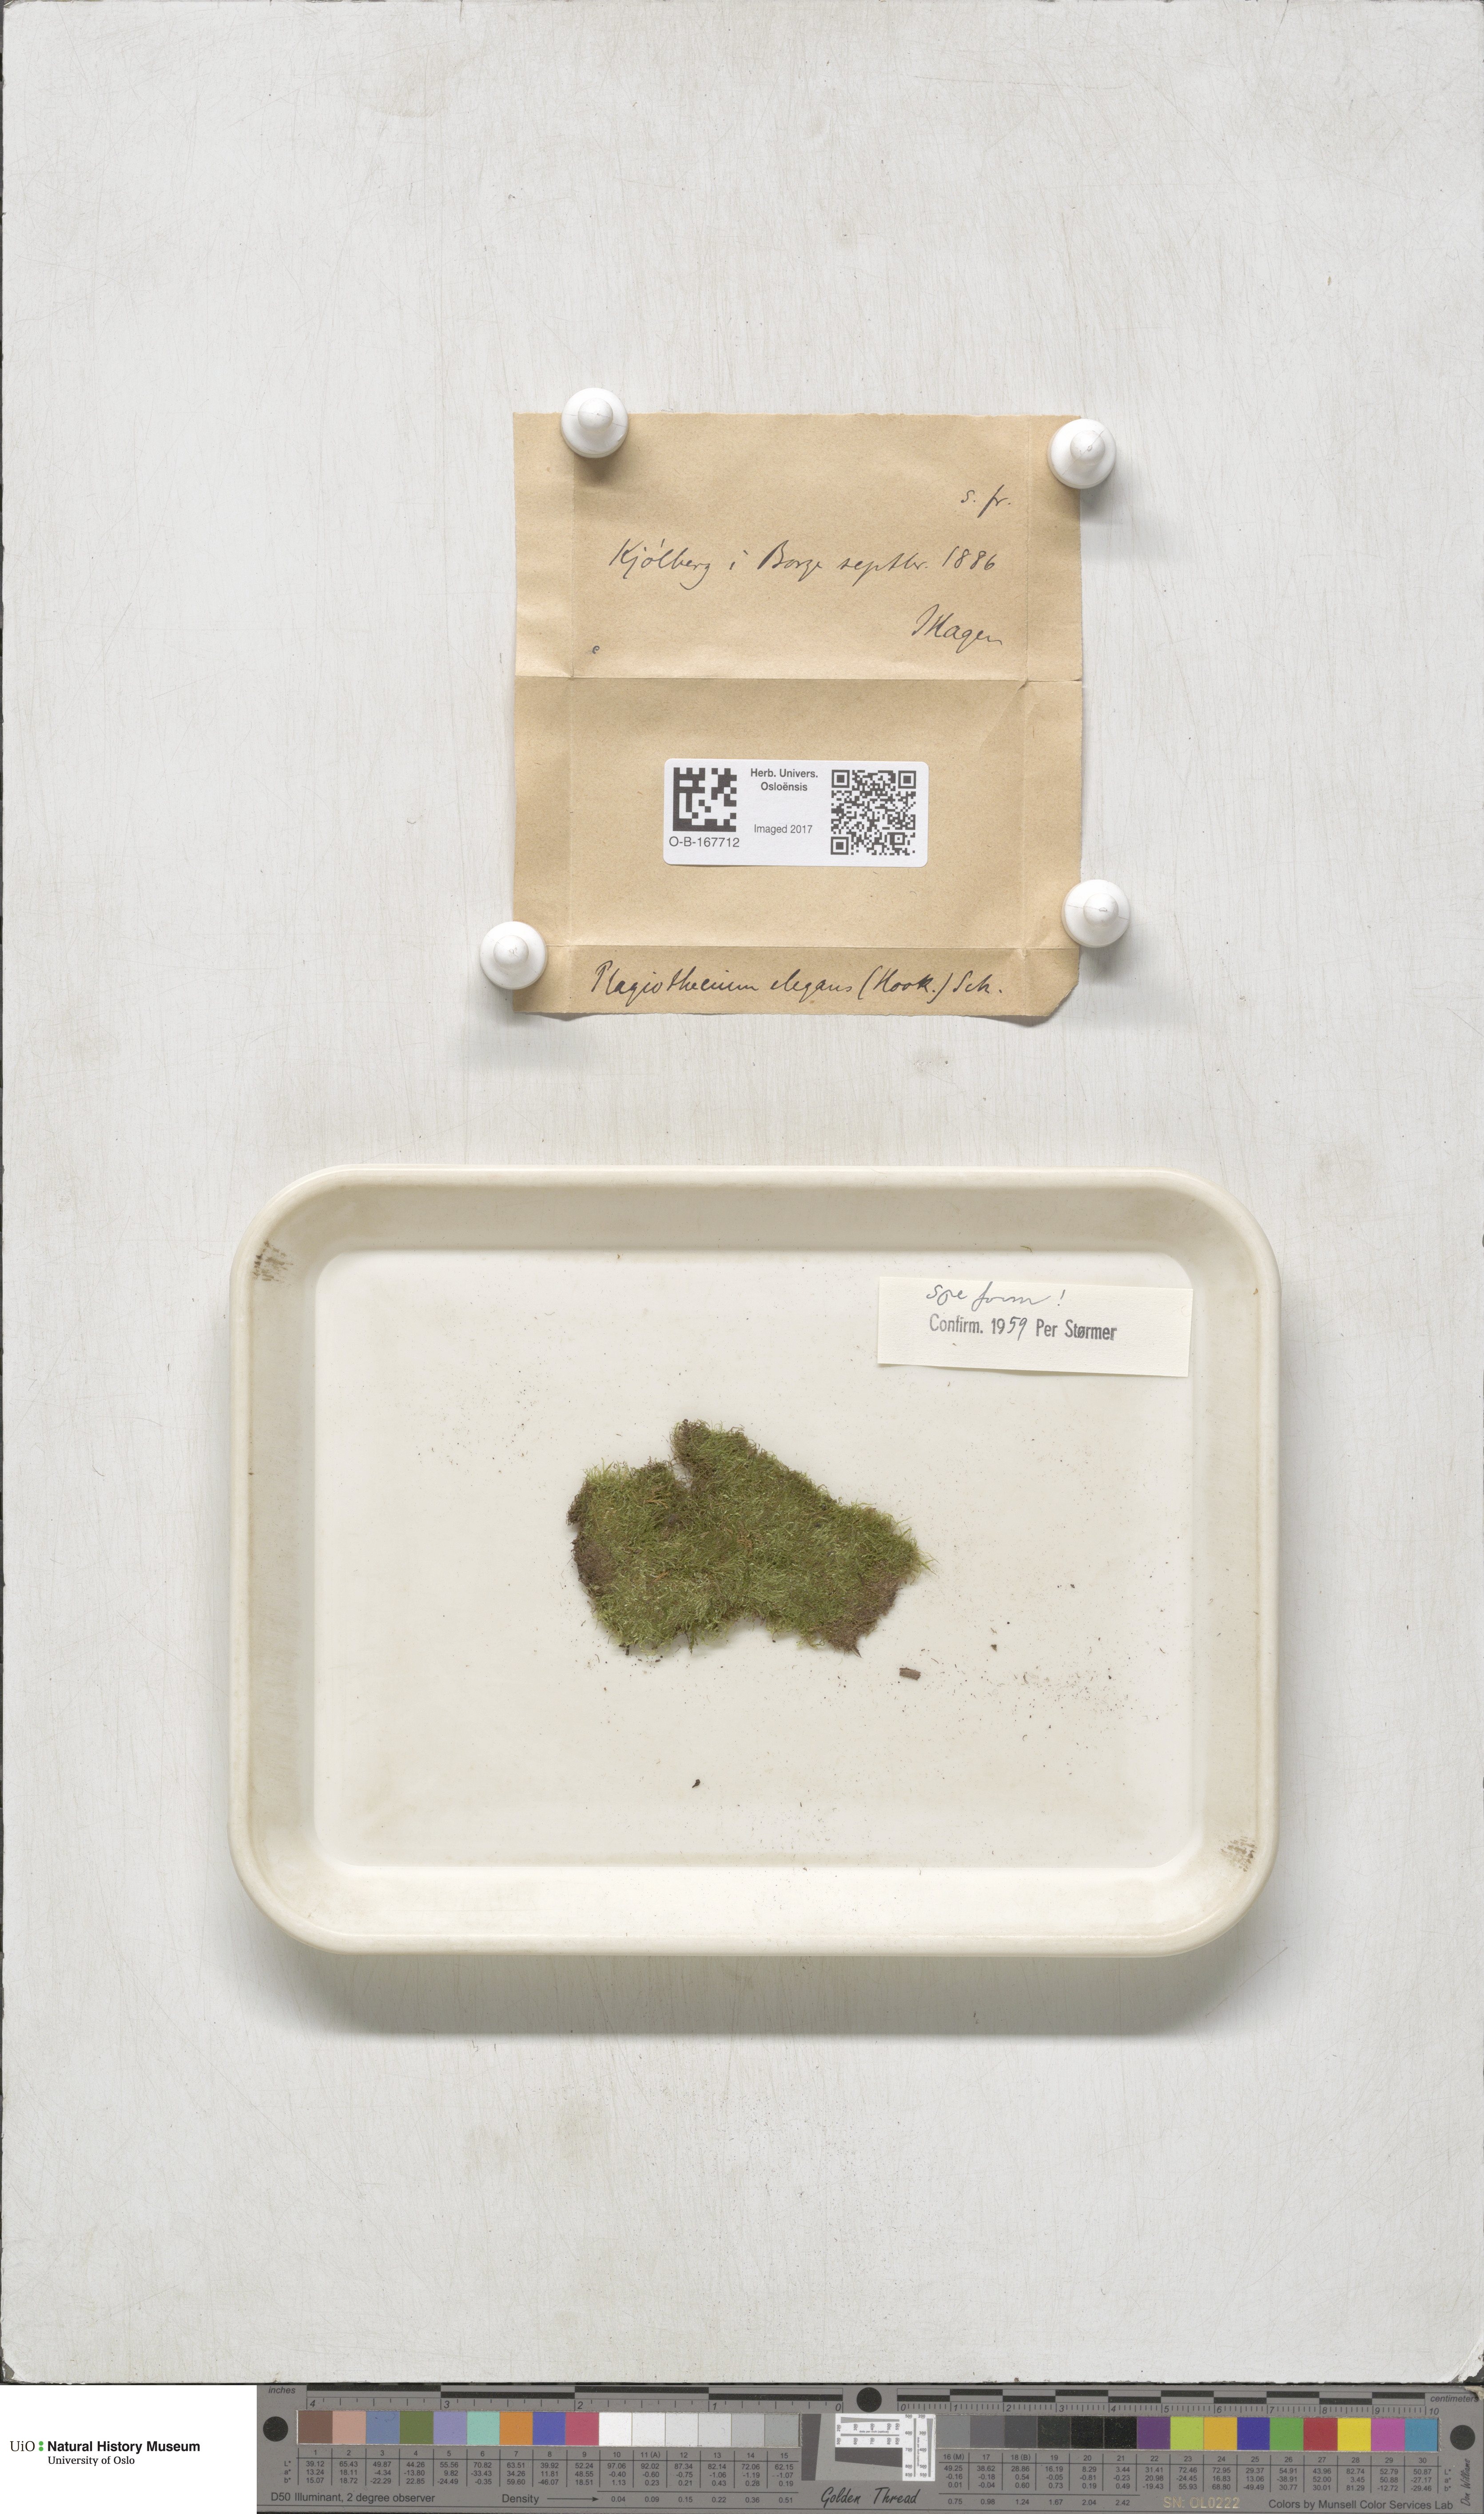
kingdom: Plantae
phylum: Bryophyta
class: Bryopsida
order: Hypnales
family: Plagiotheciaceae
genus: Pseudotaxiphyllum
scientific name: Pseudotaxiphyllum elegans
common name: Elegant silk moss
